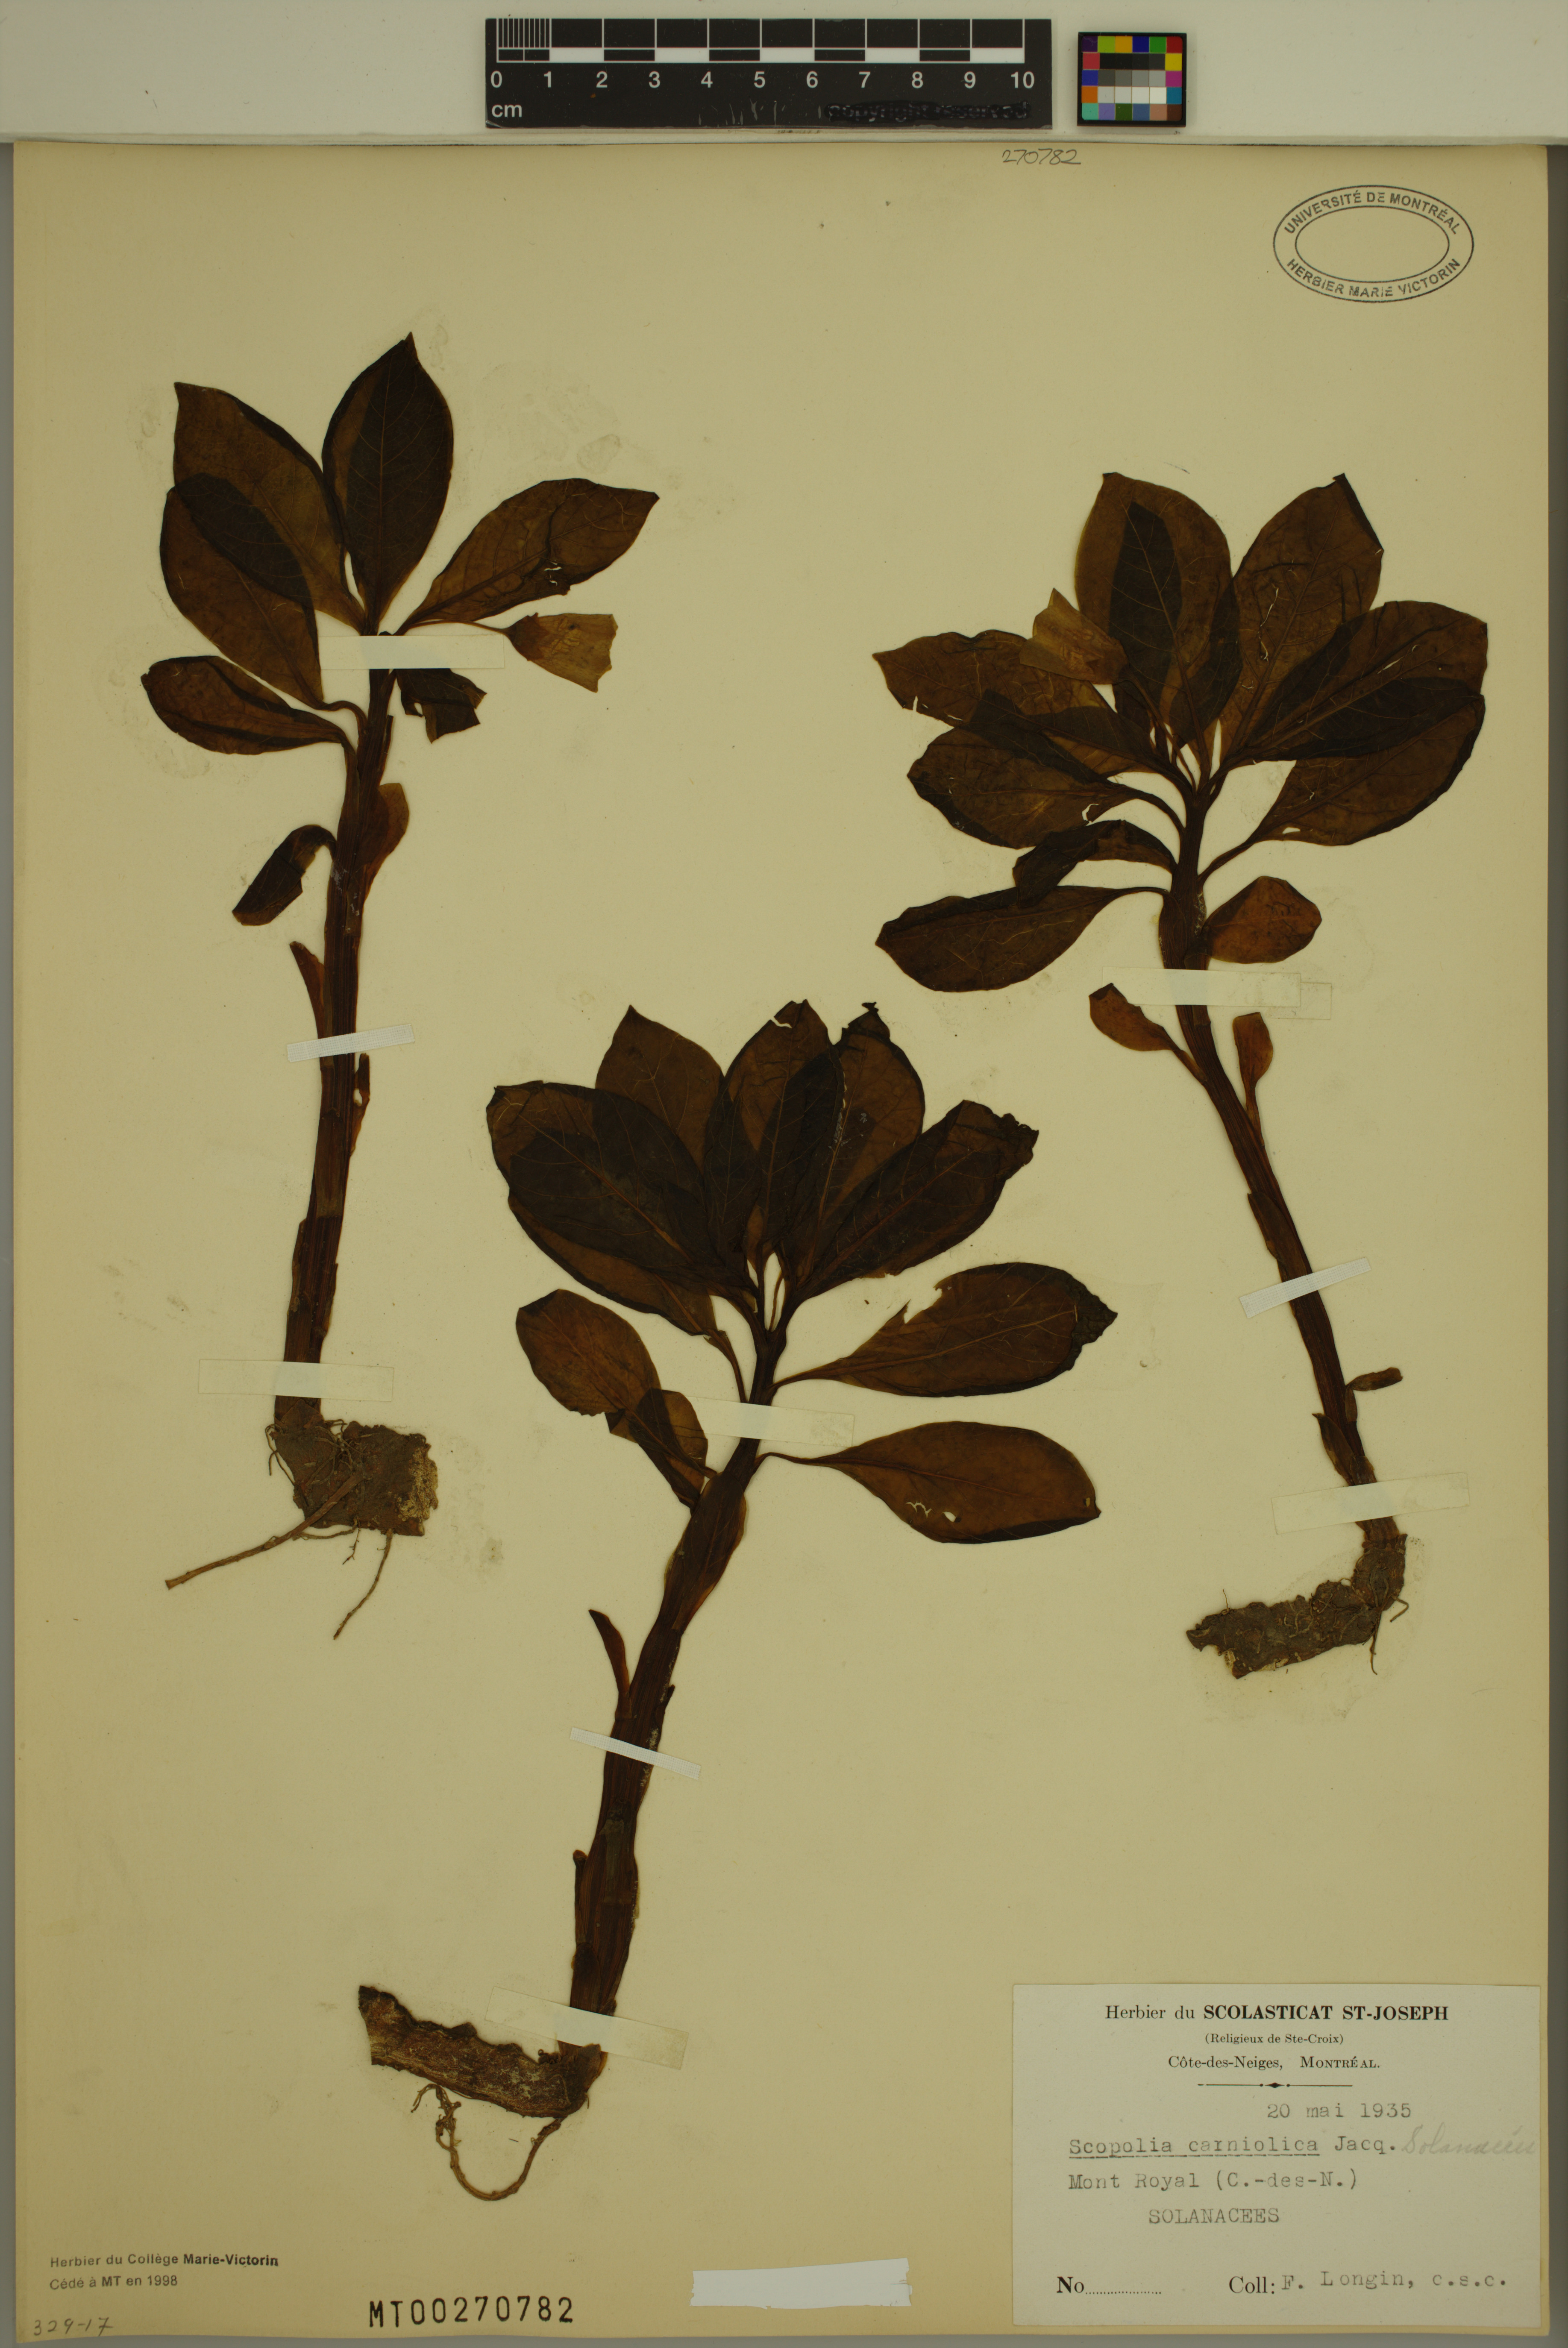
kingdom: Plantae
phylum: Tracheophyta
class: Magnoliopsida
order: Solanales
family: Solanaceae
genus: Scopolia
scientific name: Scopolia carniolica
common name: Scopolia
